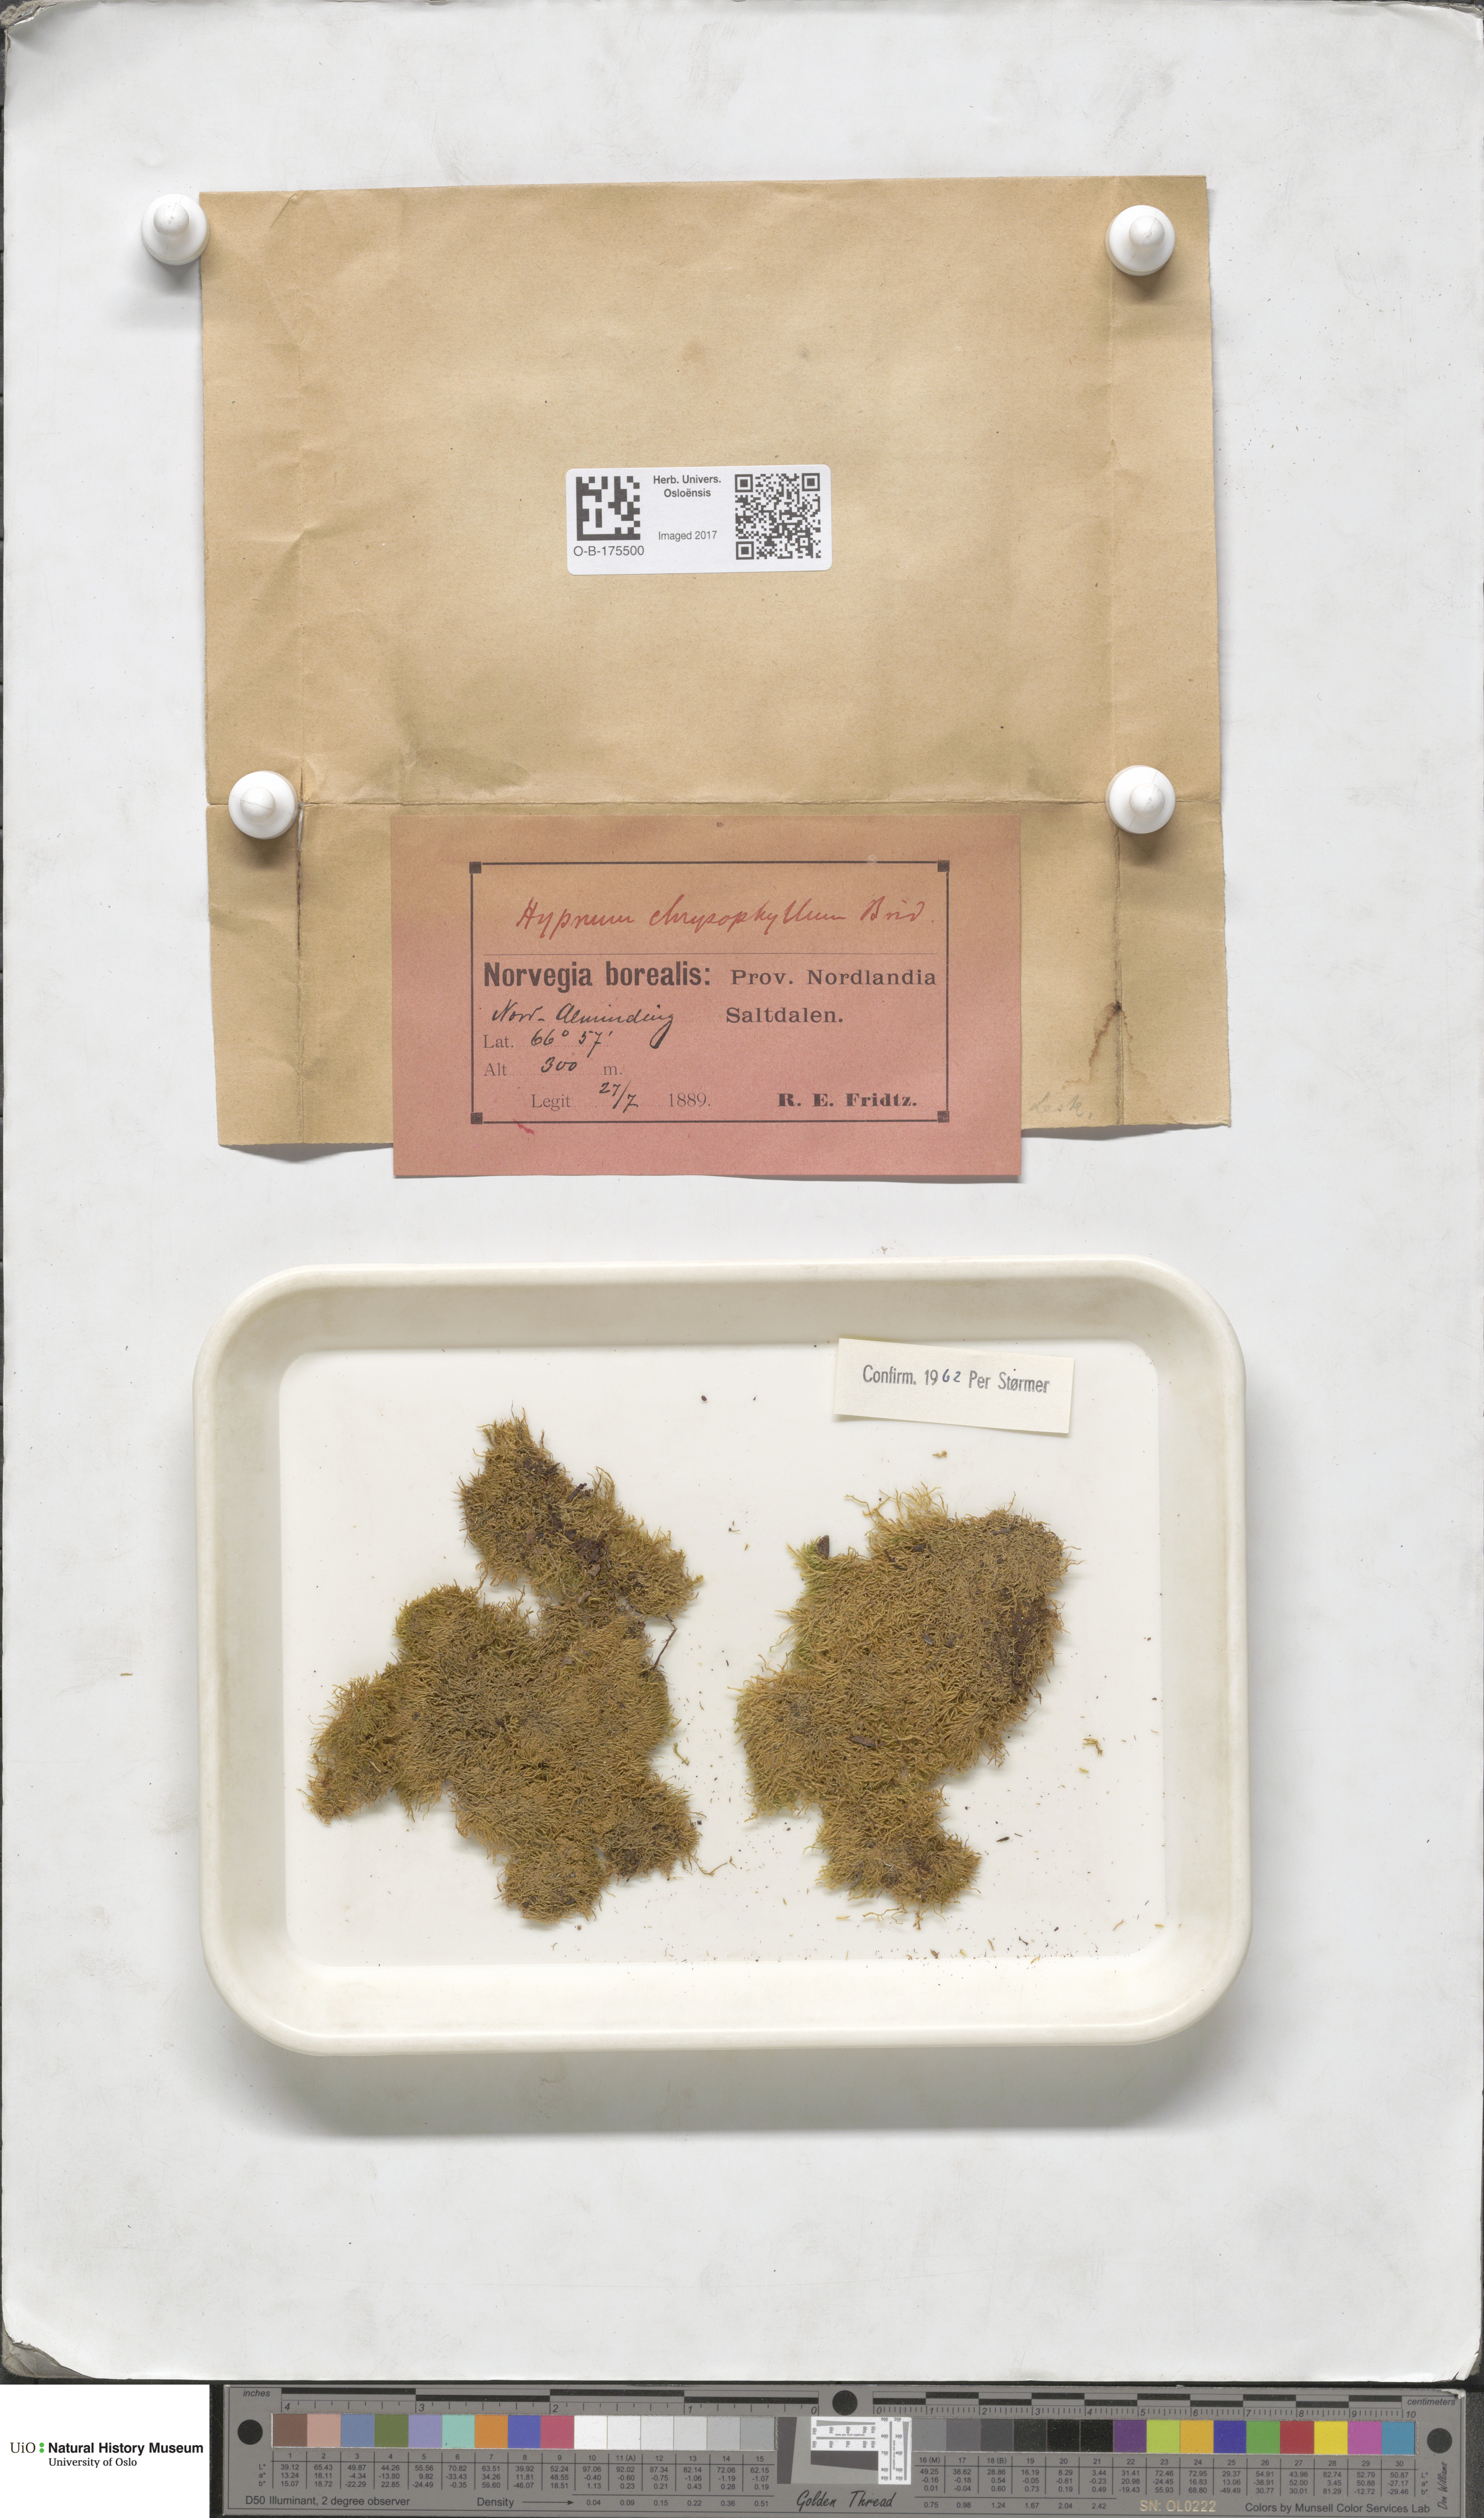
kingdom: Plantae
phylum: Bryophyta
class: Bryopsida
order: Hypnales
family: Amblystegiaceae
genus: Campylium
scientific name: Campylium chrysophyllum
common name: Goldenleaf campylium moss
